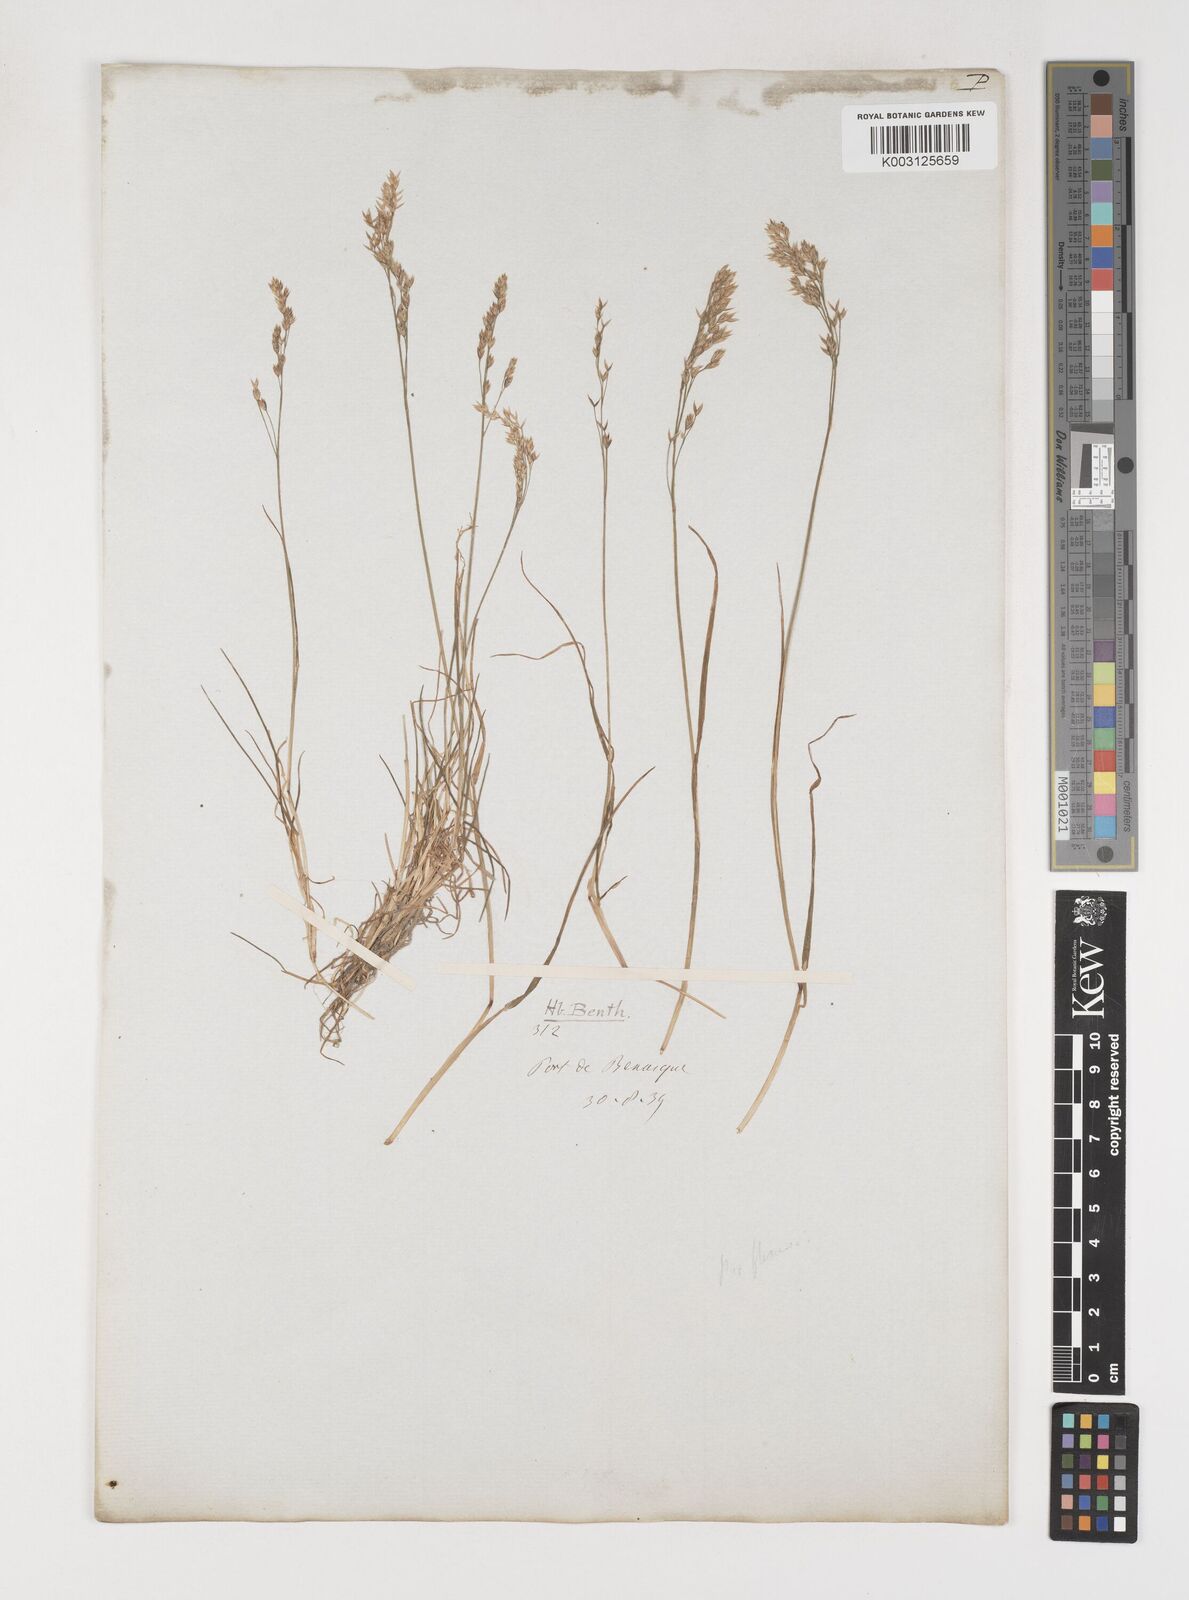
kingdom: Plantae
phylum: Tracheophyta
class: Liliopsida
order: Poales
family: Poaceae
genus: Poa
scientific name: Poa
